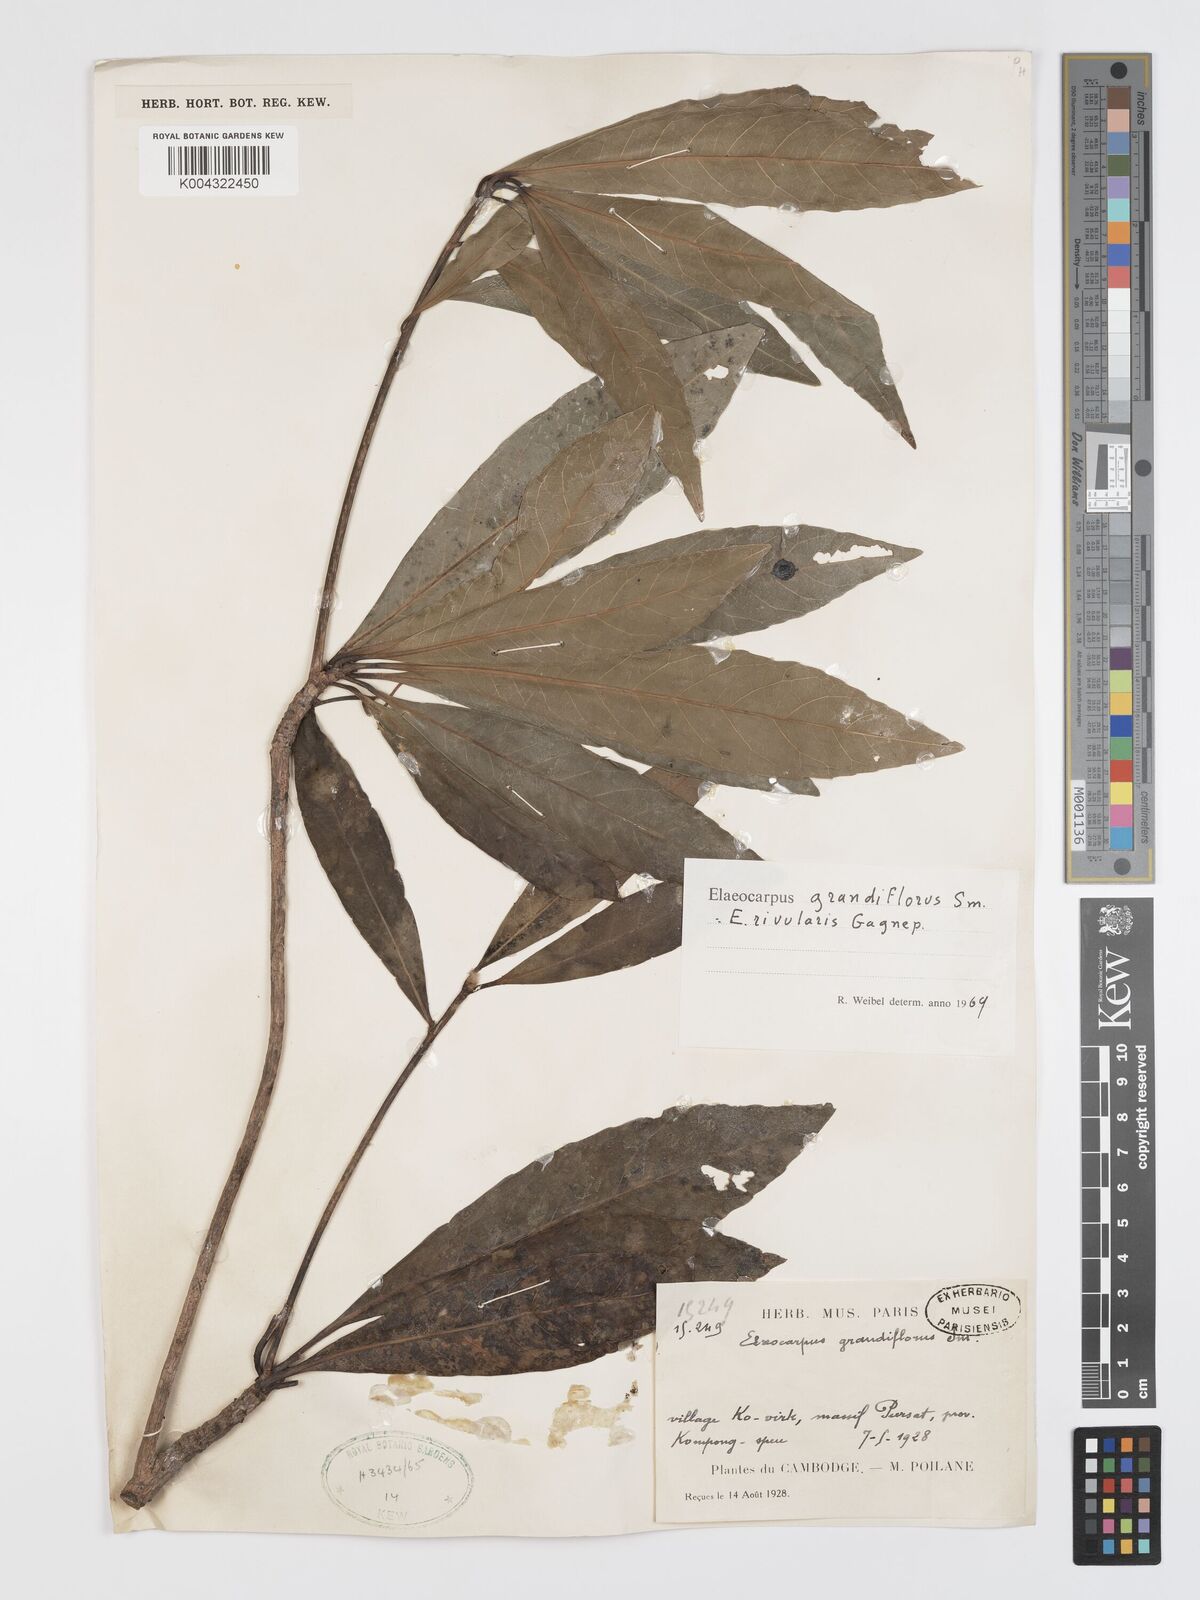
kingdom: Plantae
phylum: Tracheophyta
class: Magnoliopsida
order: Oxalidales
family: Elaeocarpaceae
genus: Elaeocarpus
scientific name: Elaeocarpus grandiflorus
